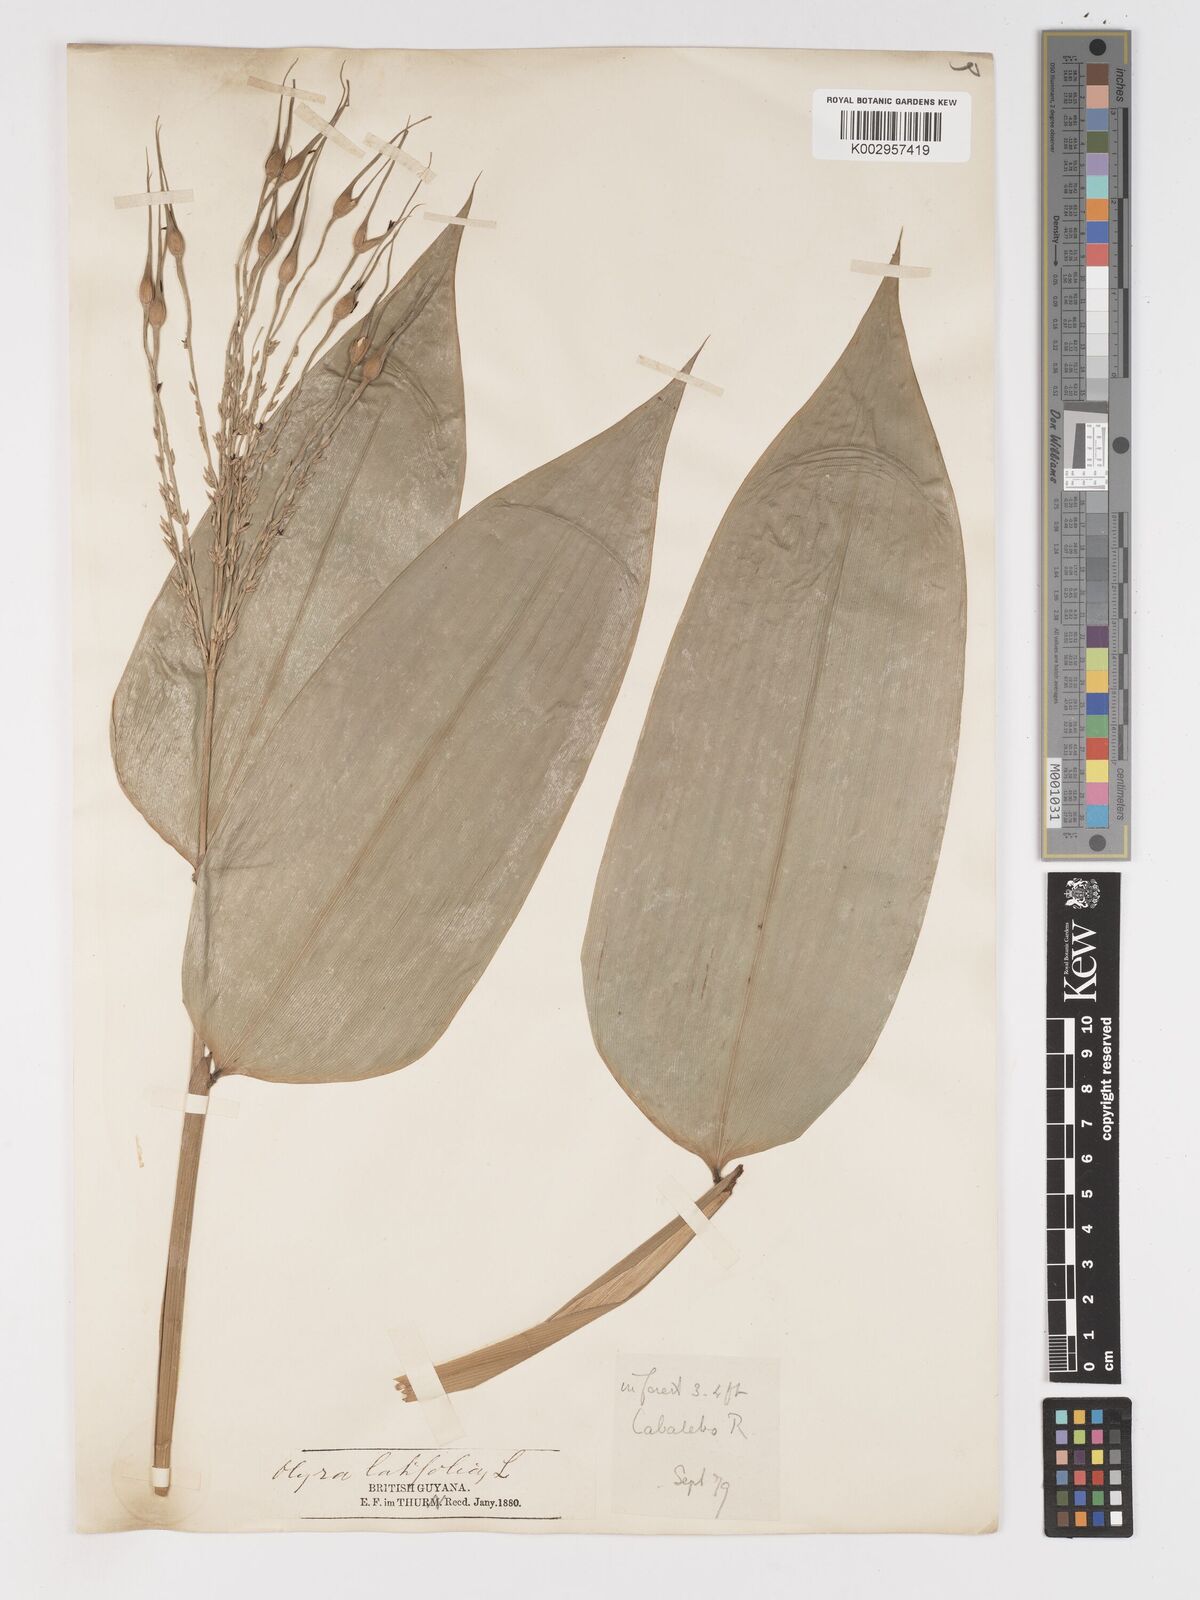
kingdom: Plantae
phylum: Tracheophyta
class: Liliopsida
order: Poales
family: Poaceae
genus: Olyra
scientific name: Olyra caudata
